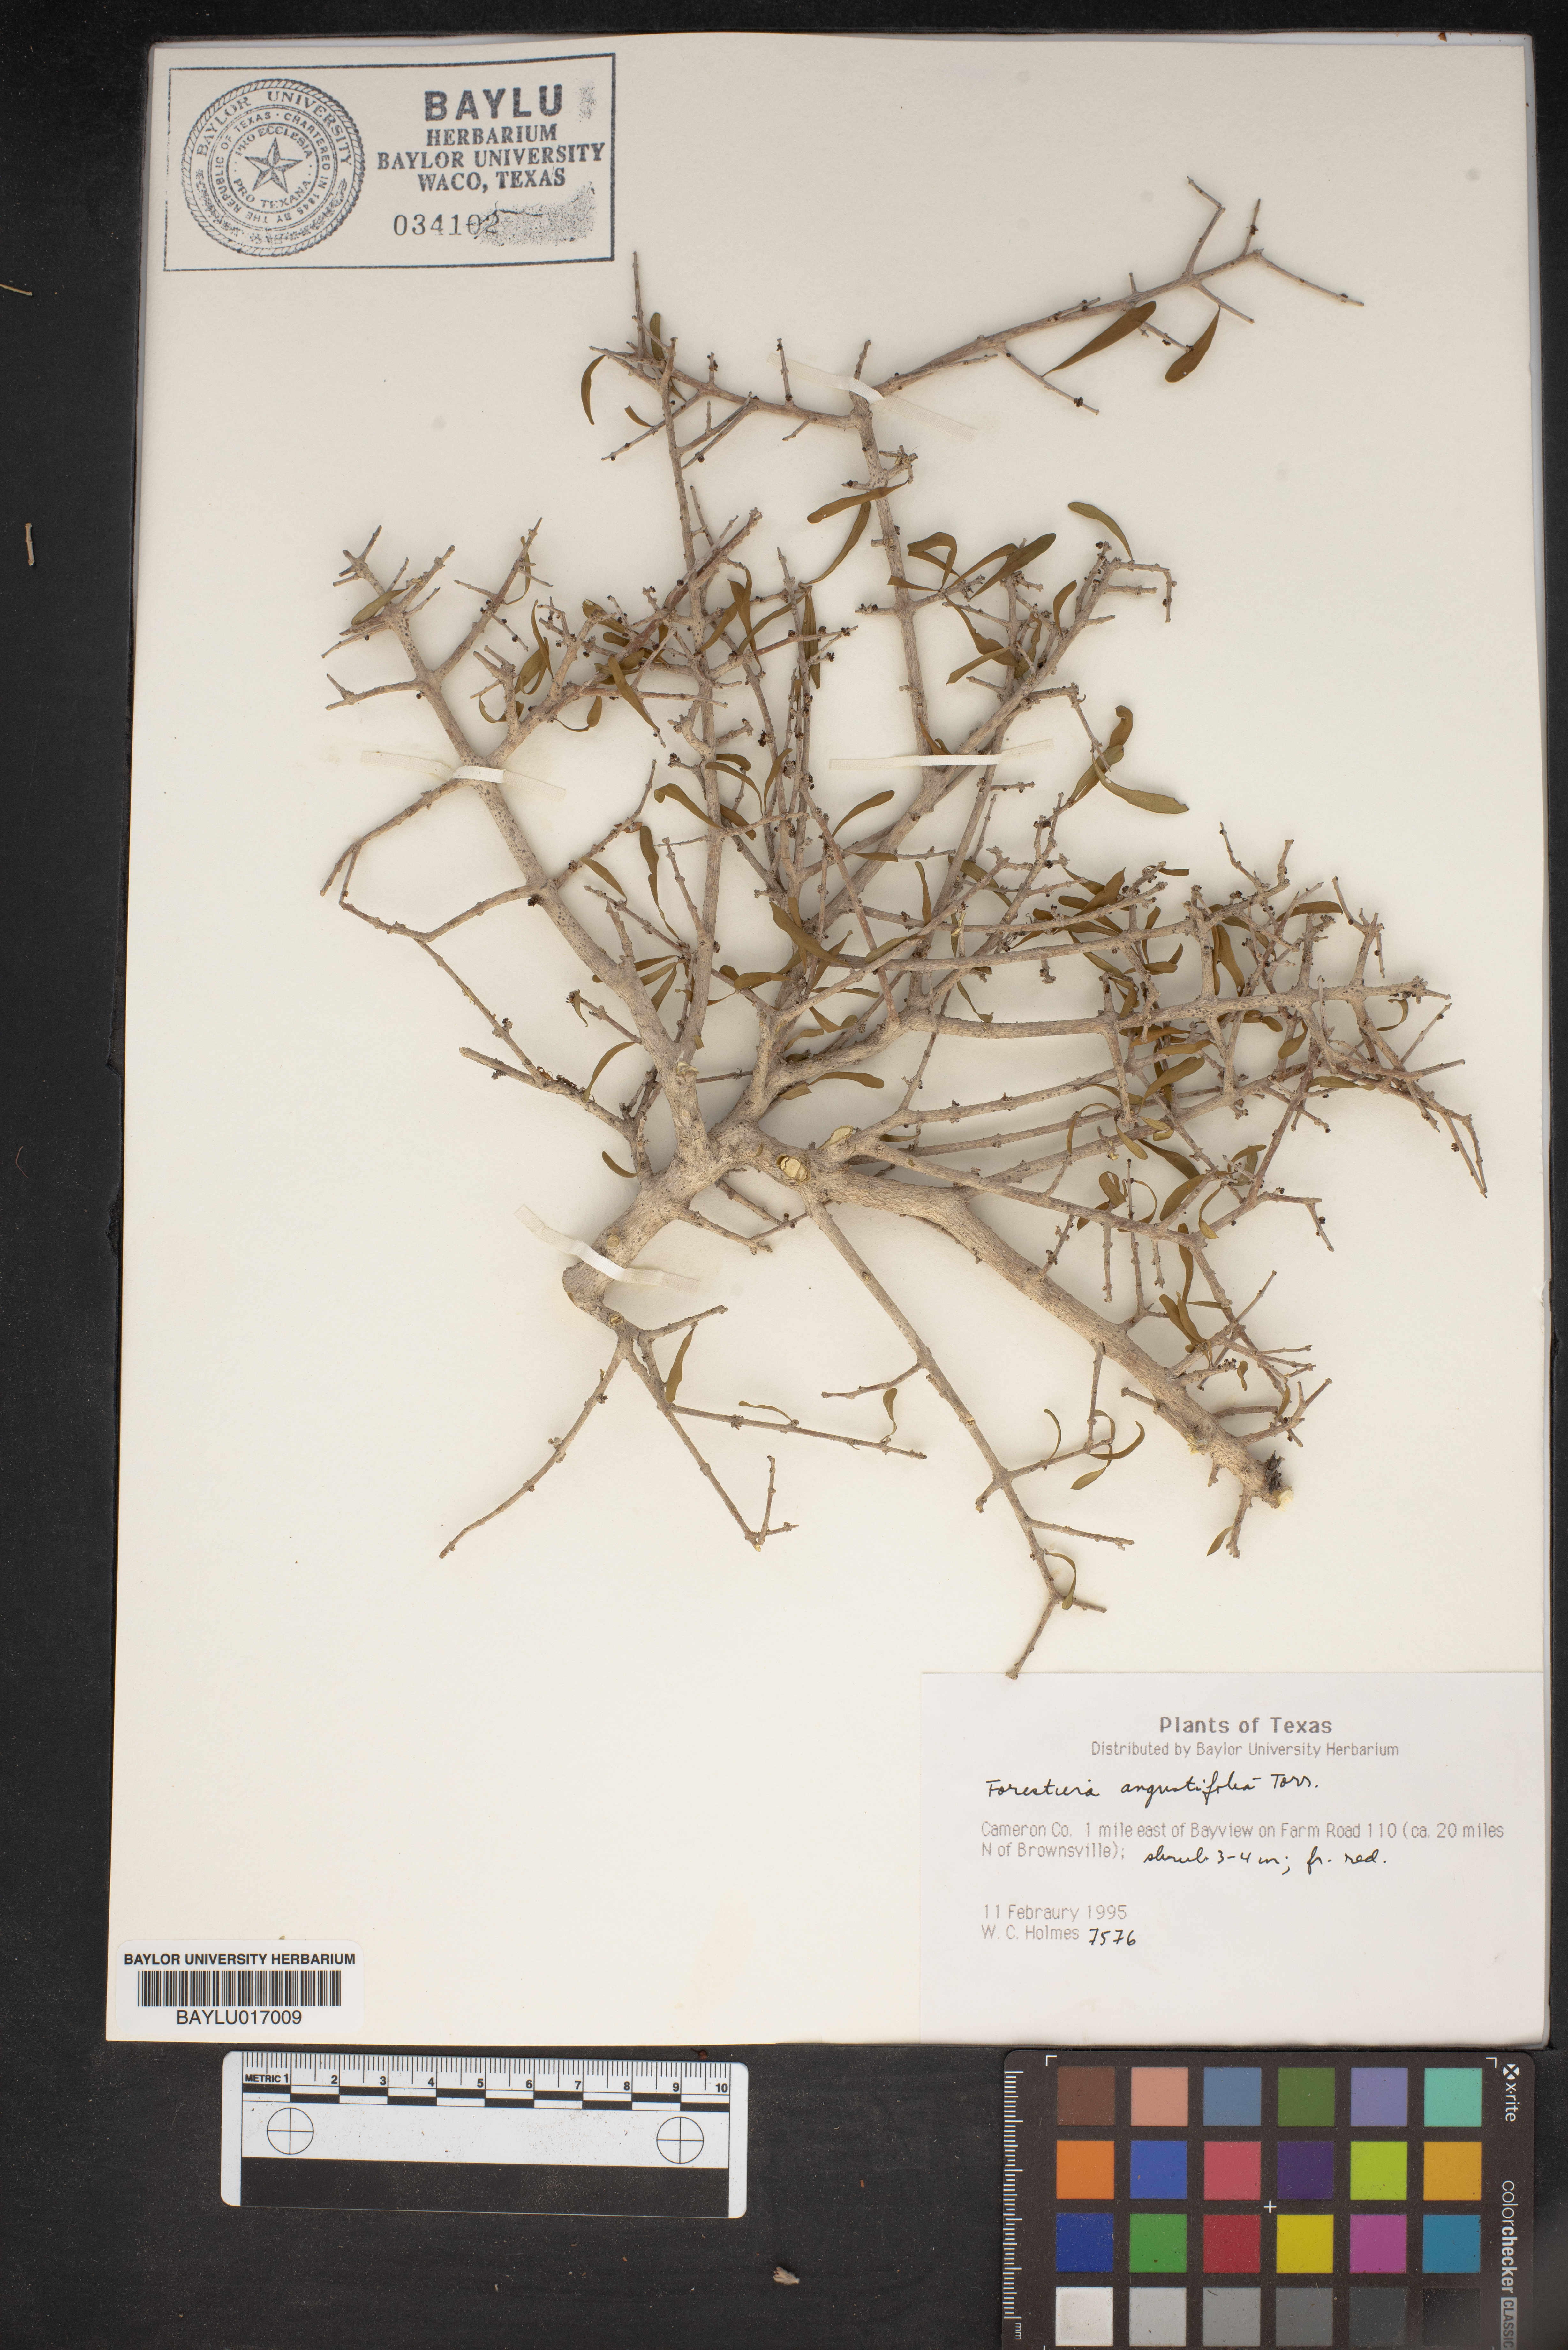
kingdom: Plantae
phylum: Tracheophyta
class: Magnoliopsida
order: Lamiales
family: Oleaceae
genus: Forestiera
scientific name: Forestiera angustifolia
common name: Elbowbush
